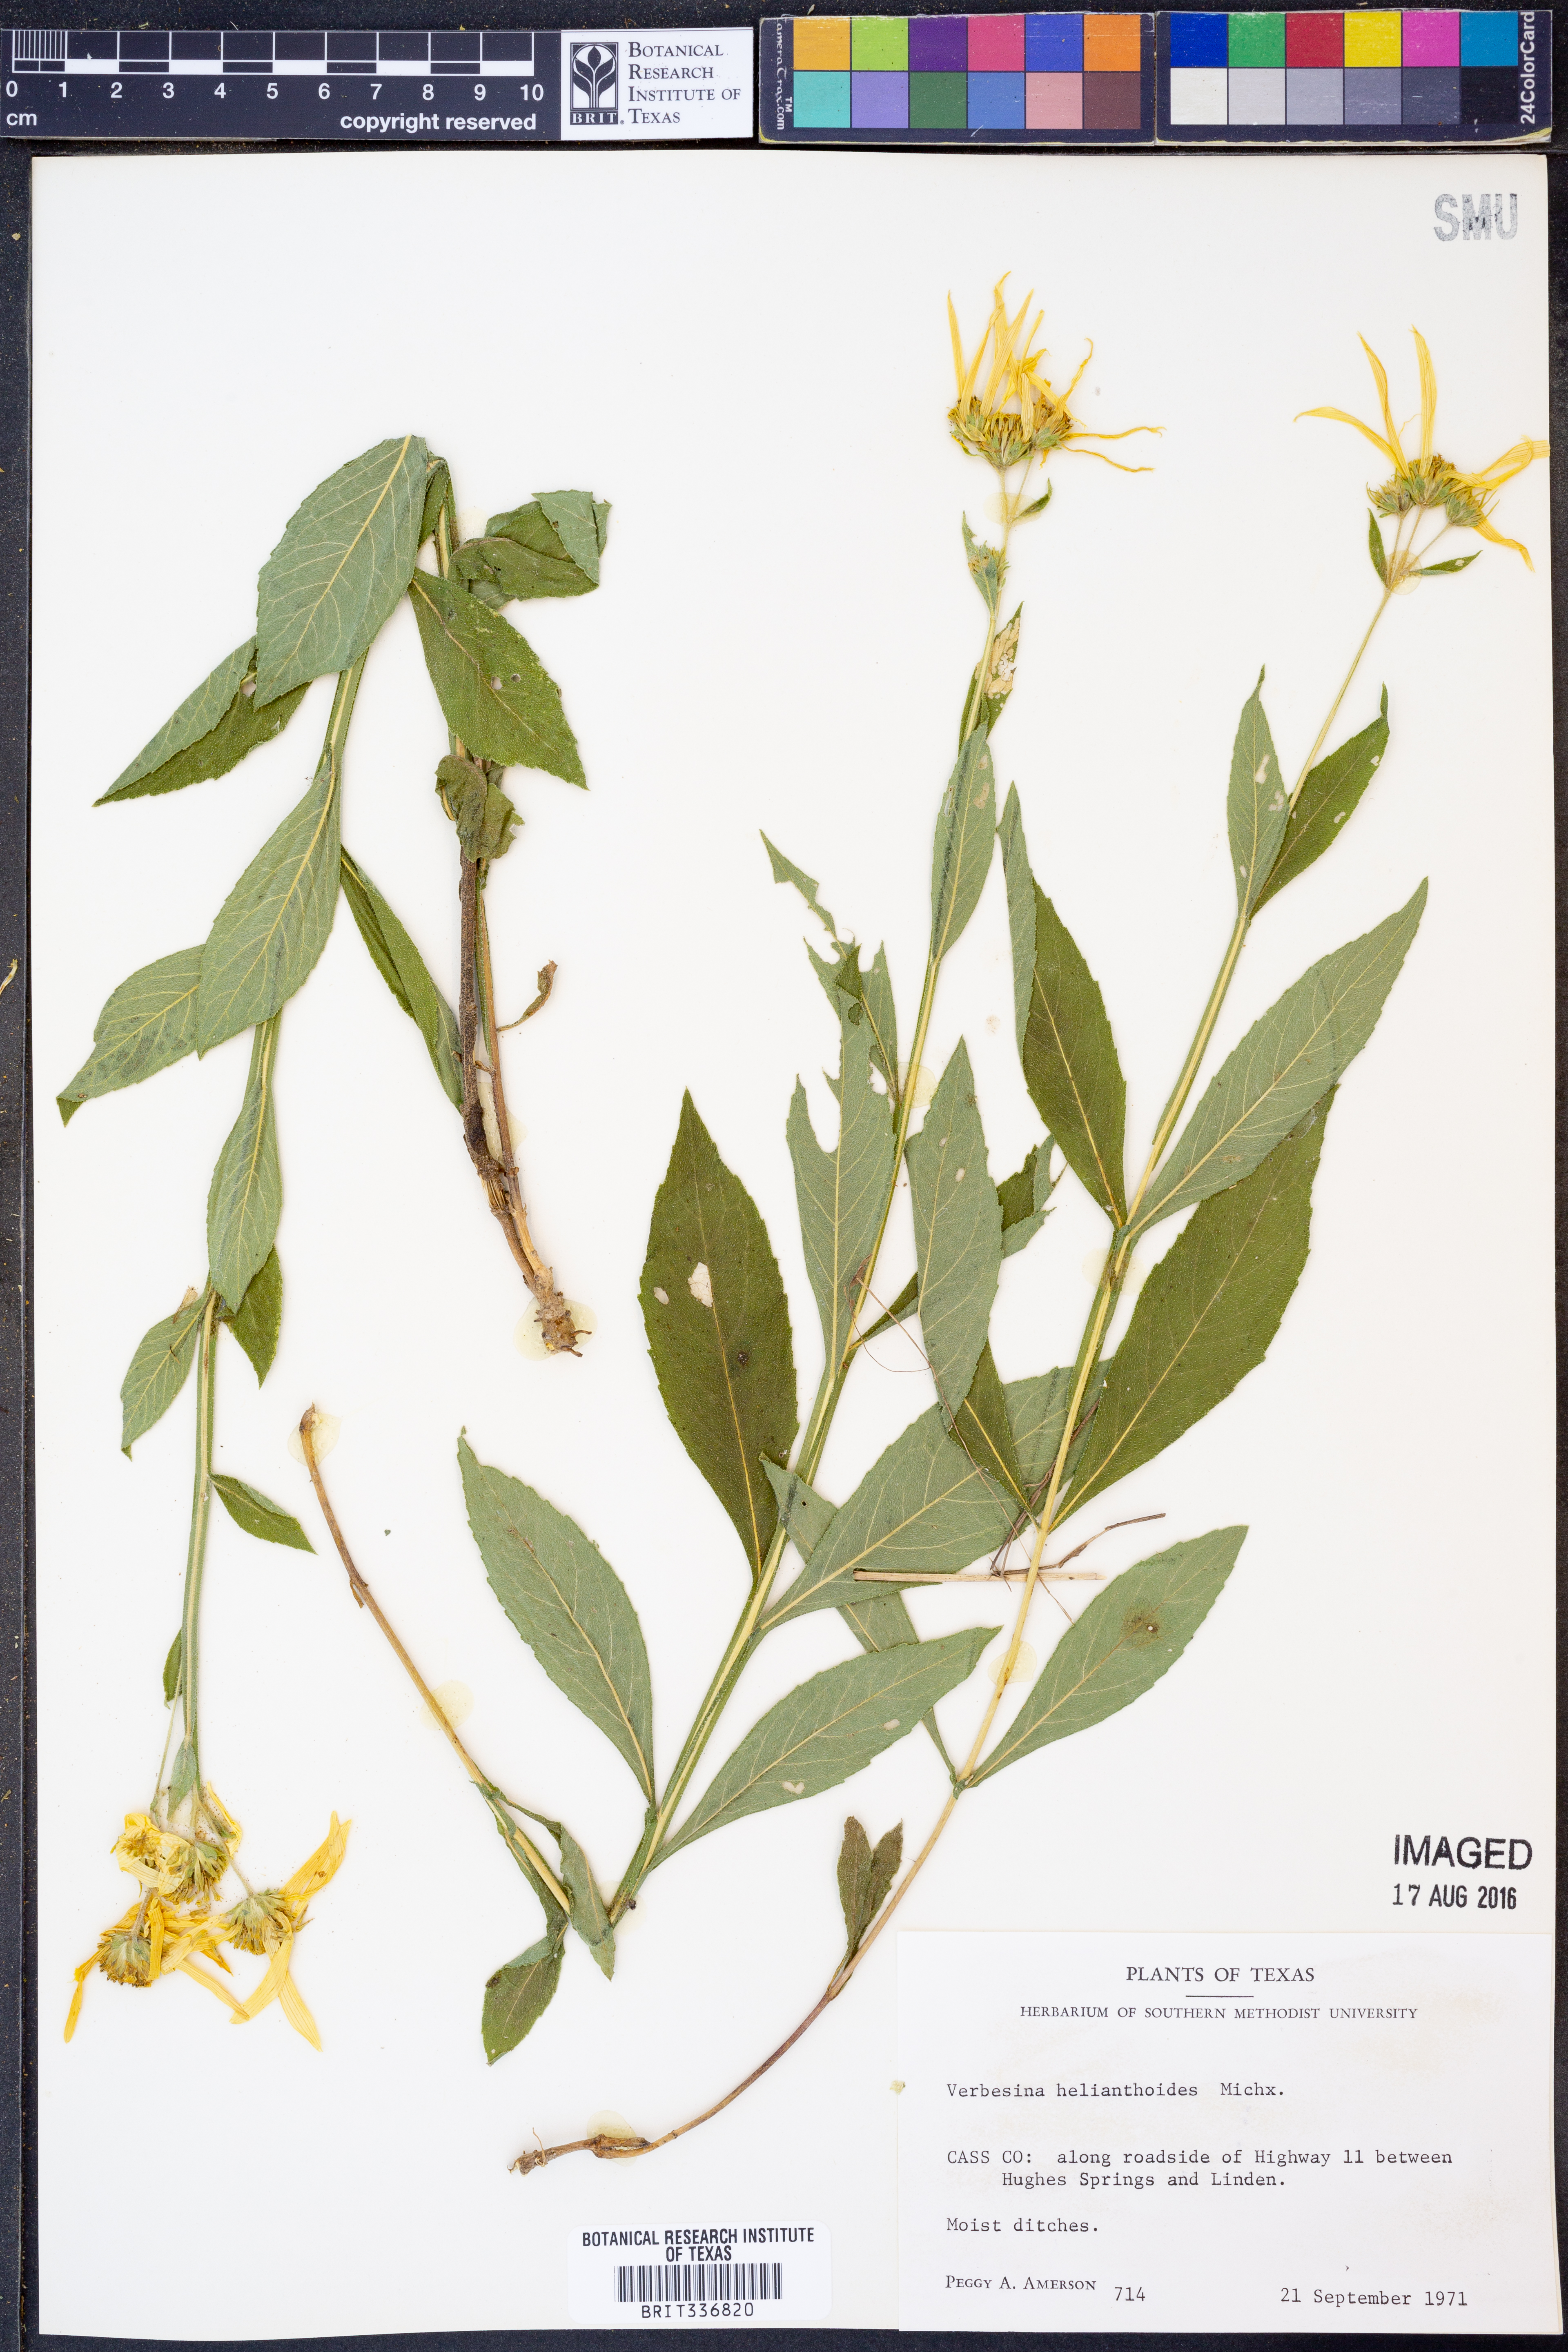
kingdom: Plantae
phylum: Tracheophyta
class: Magnoliopsida
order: Asterales
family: Asteraceae
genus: Verbesina
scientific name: Verbesina helianthoides
